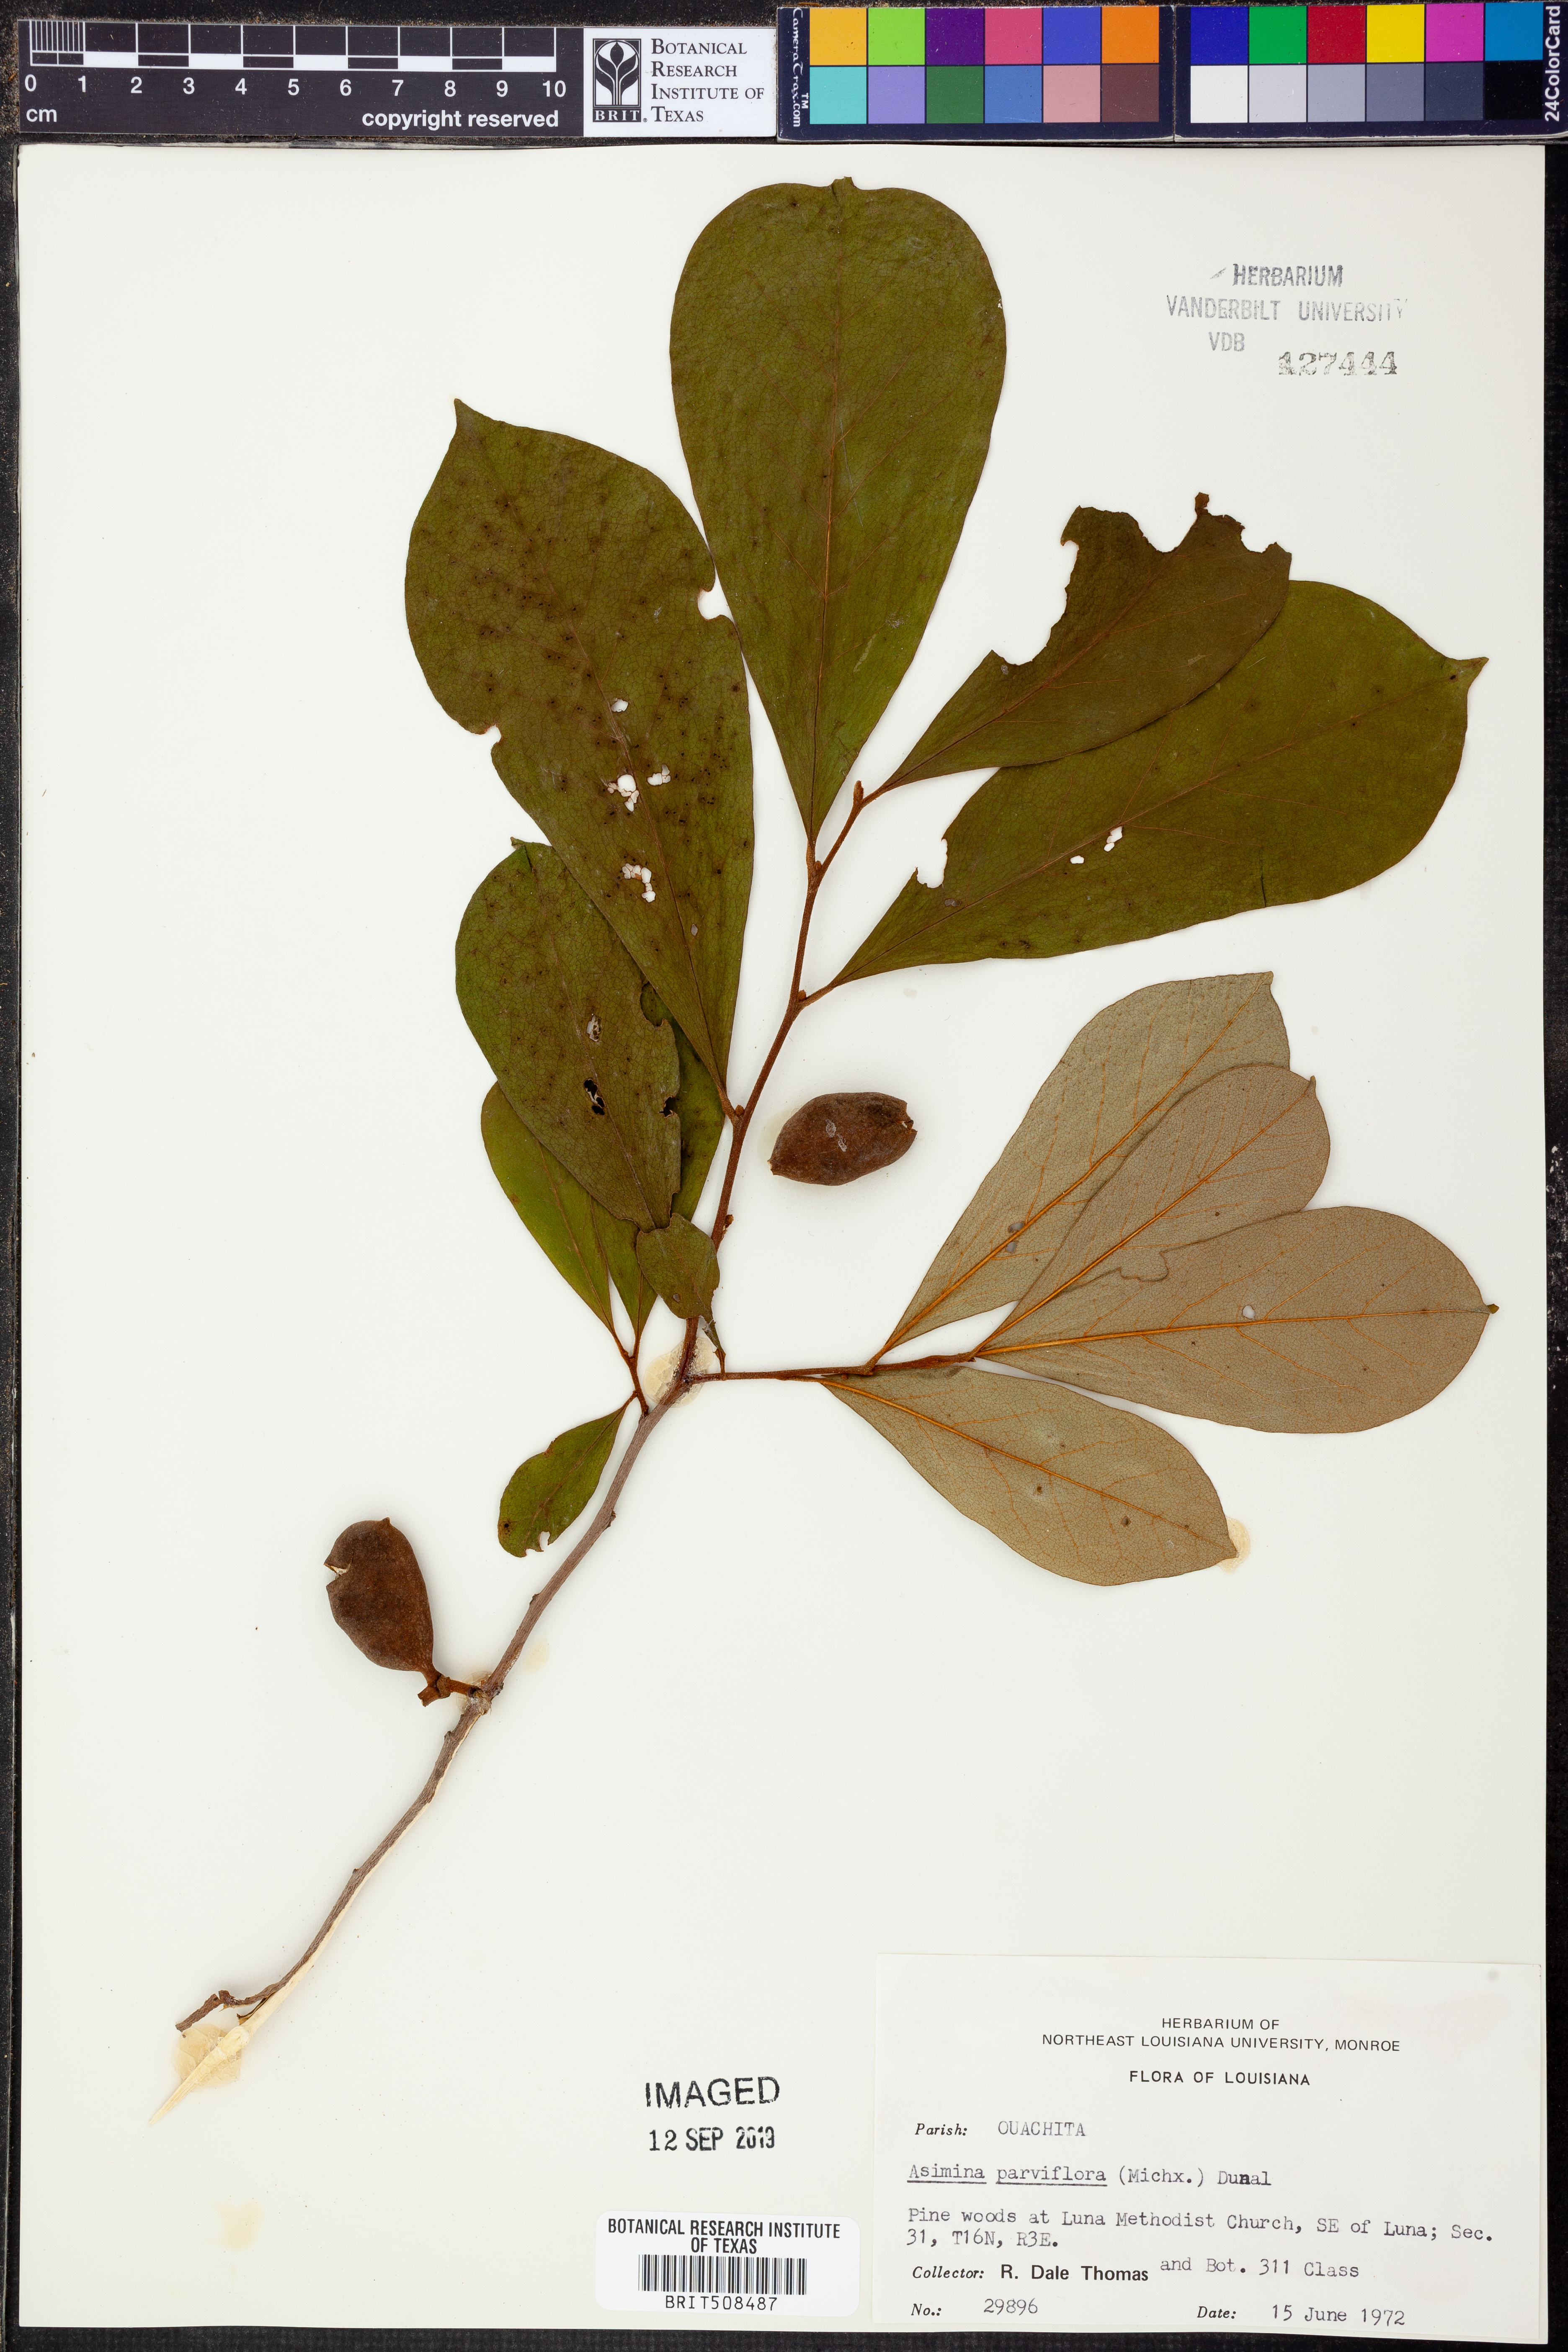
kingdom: Plantae
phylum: Tracheophyta
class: Magnoliopsida
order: Magnoliales
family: Annonaceae
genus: Asimina
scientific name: Asimina parviflora
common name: Dwarf pawpaw
